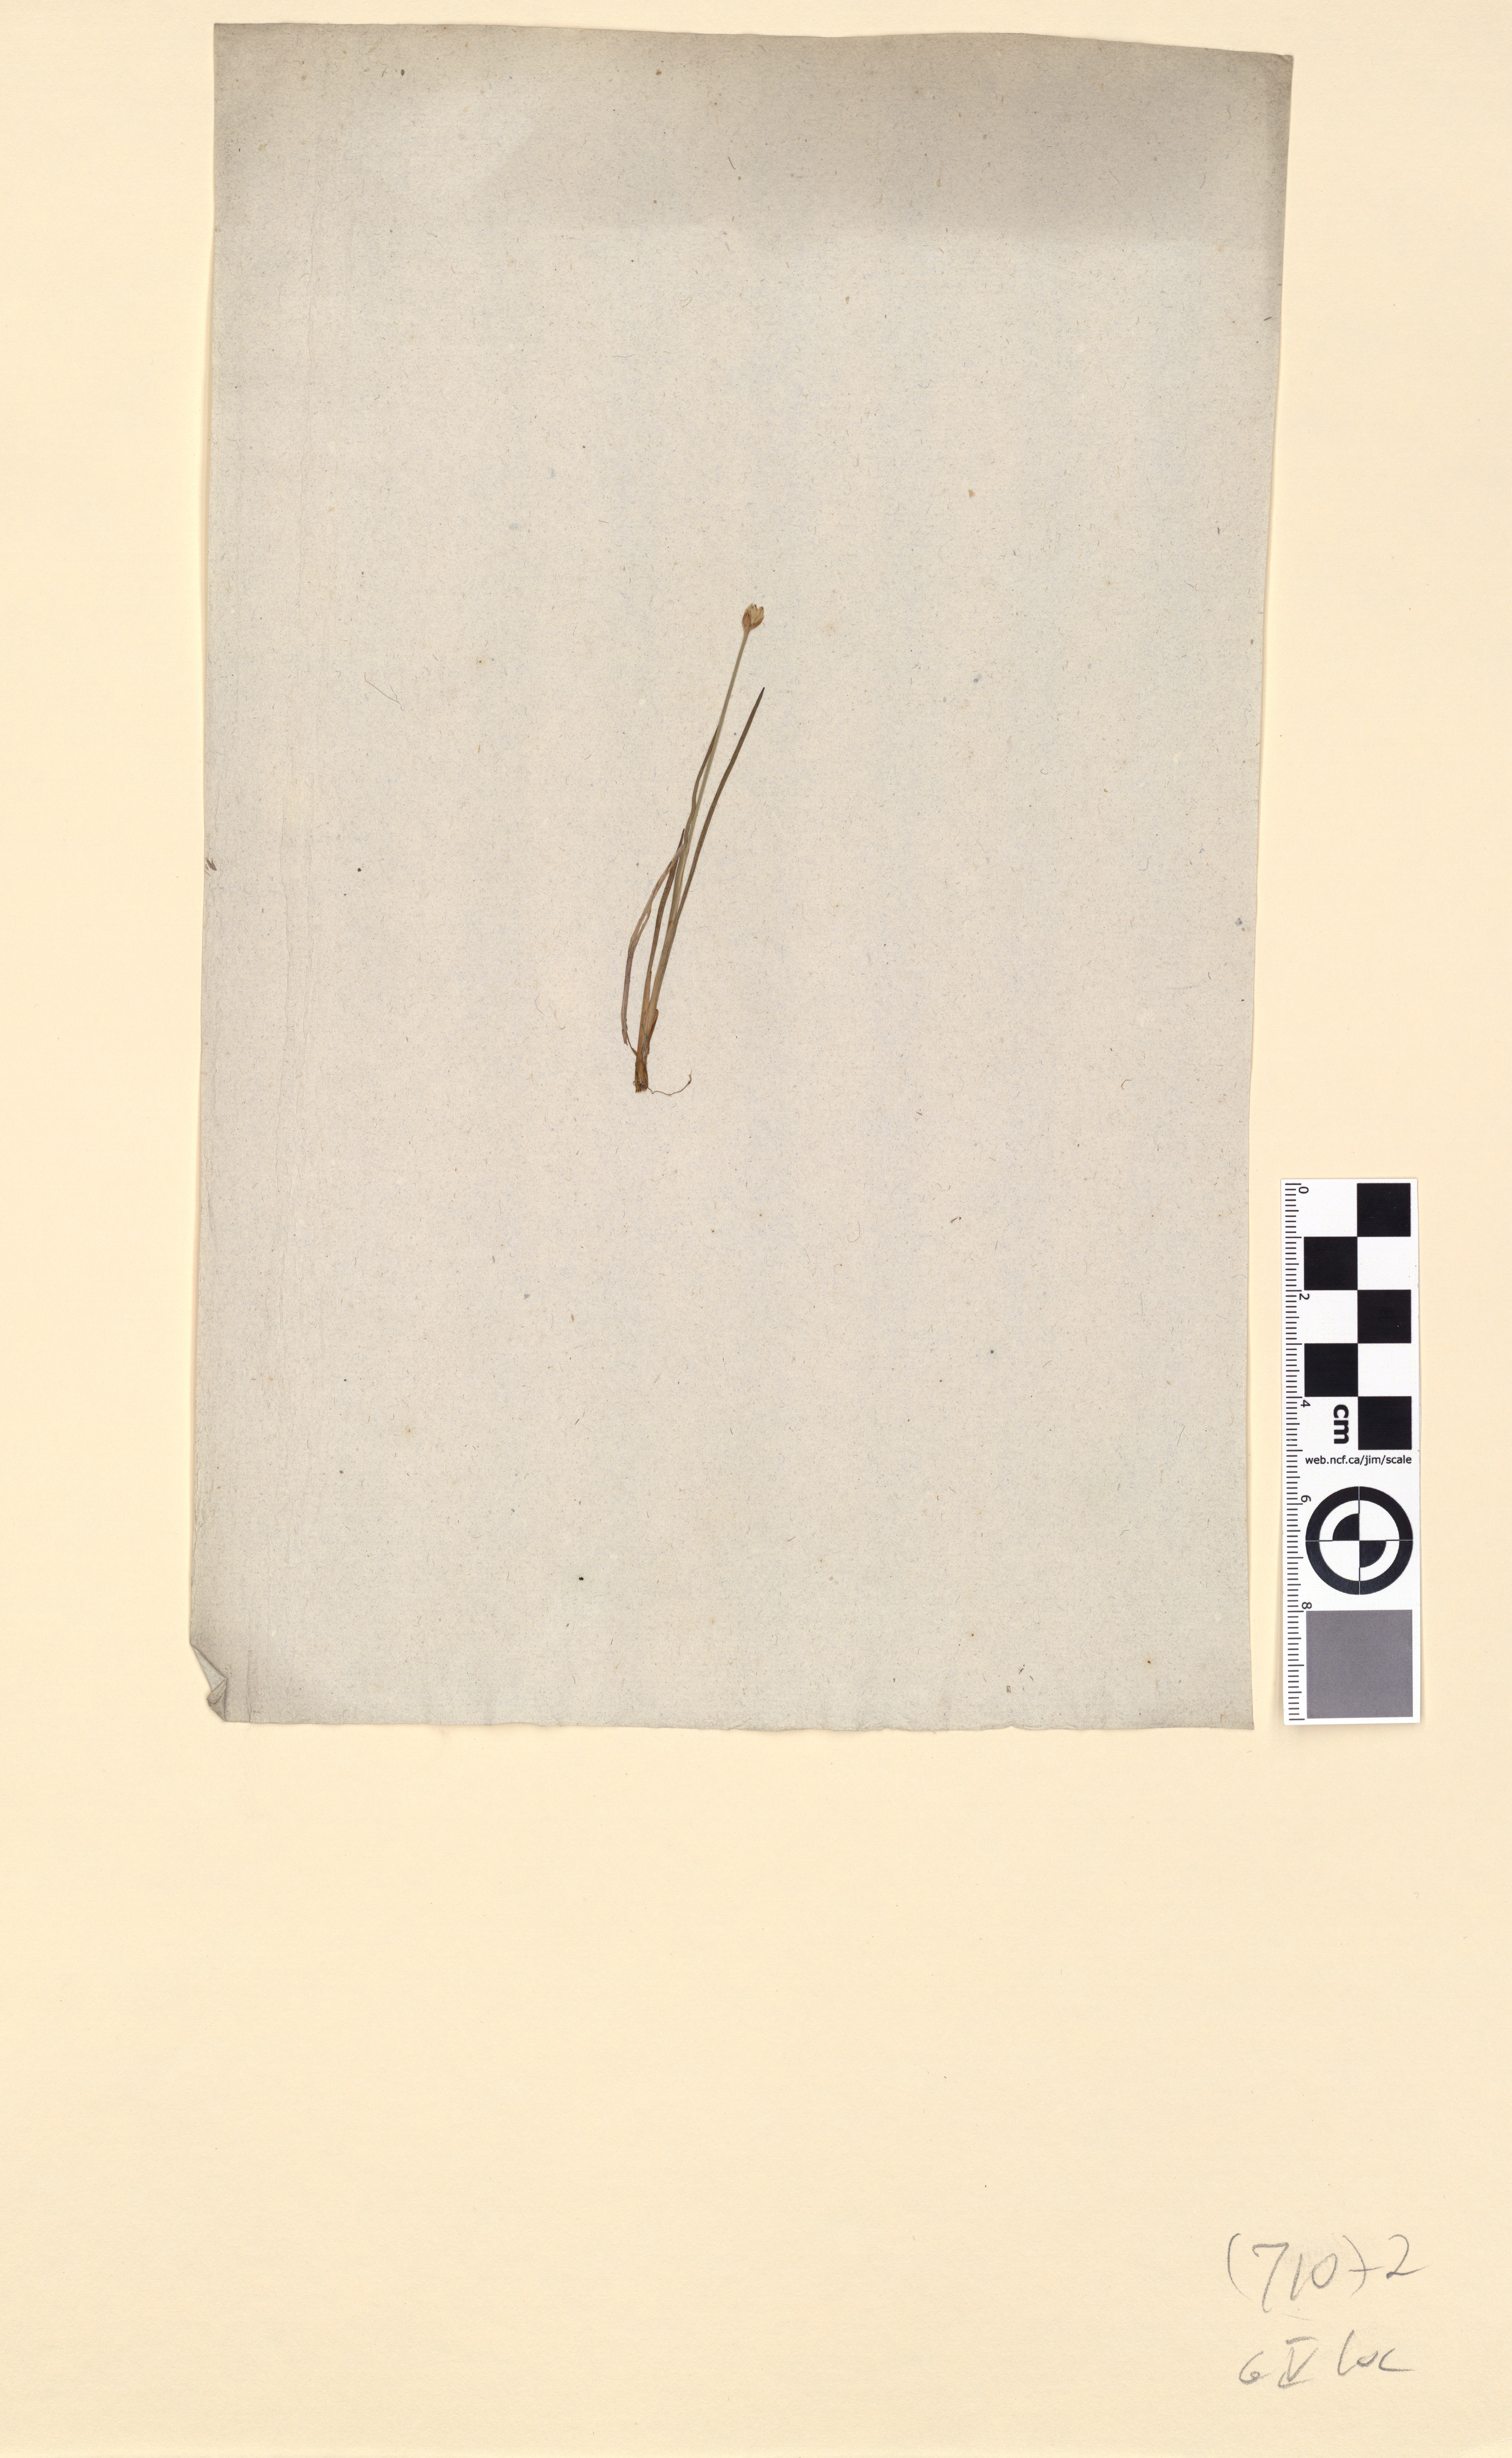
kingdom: Plantae
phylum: Tracheophyta
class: Liliopsida
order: Poales
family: Juncaceae
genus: Juncus
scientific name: Juncus triglumis
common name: Three-flowered rush
